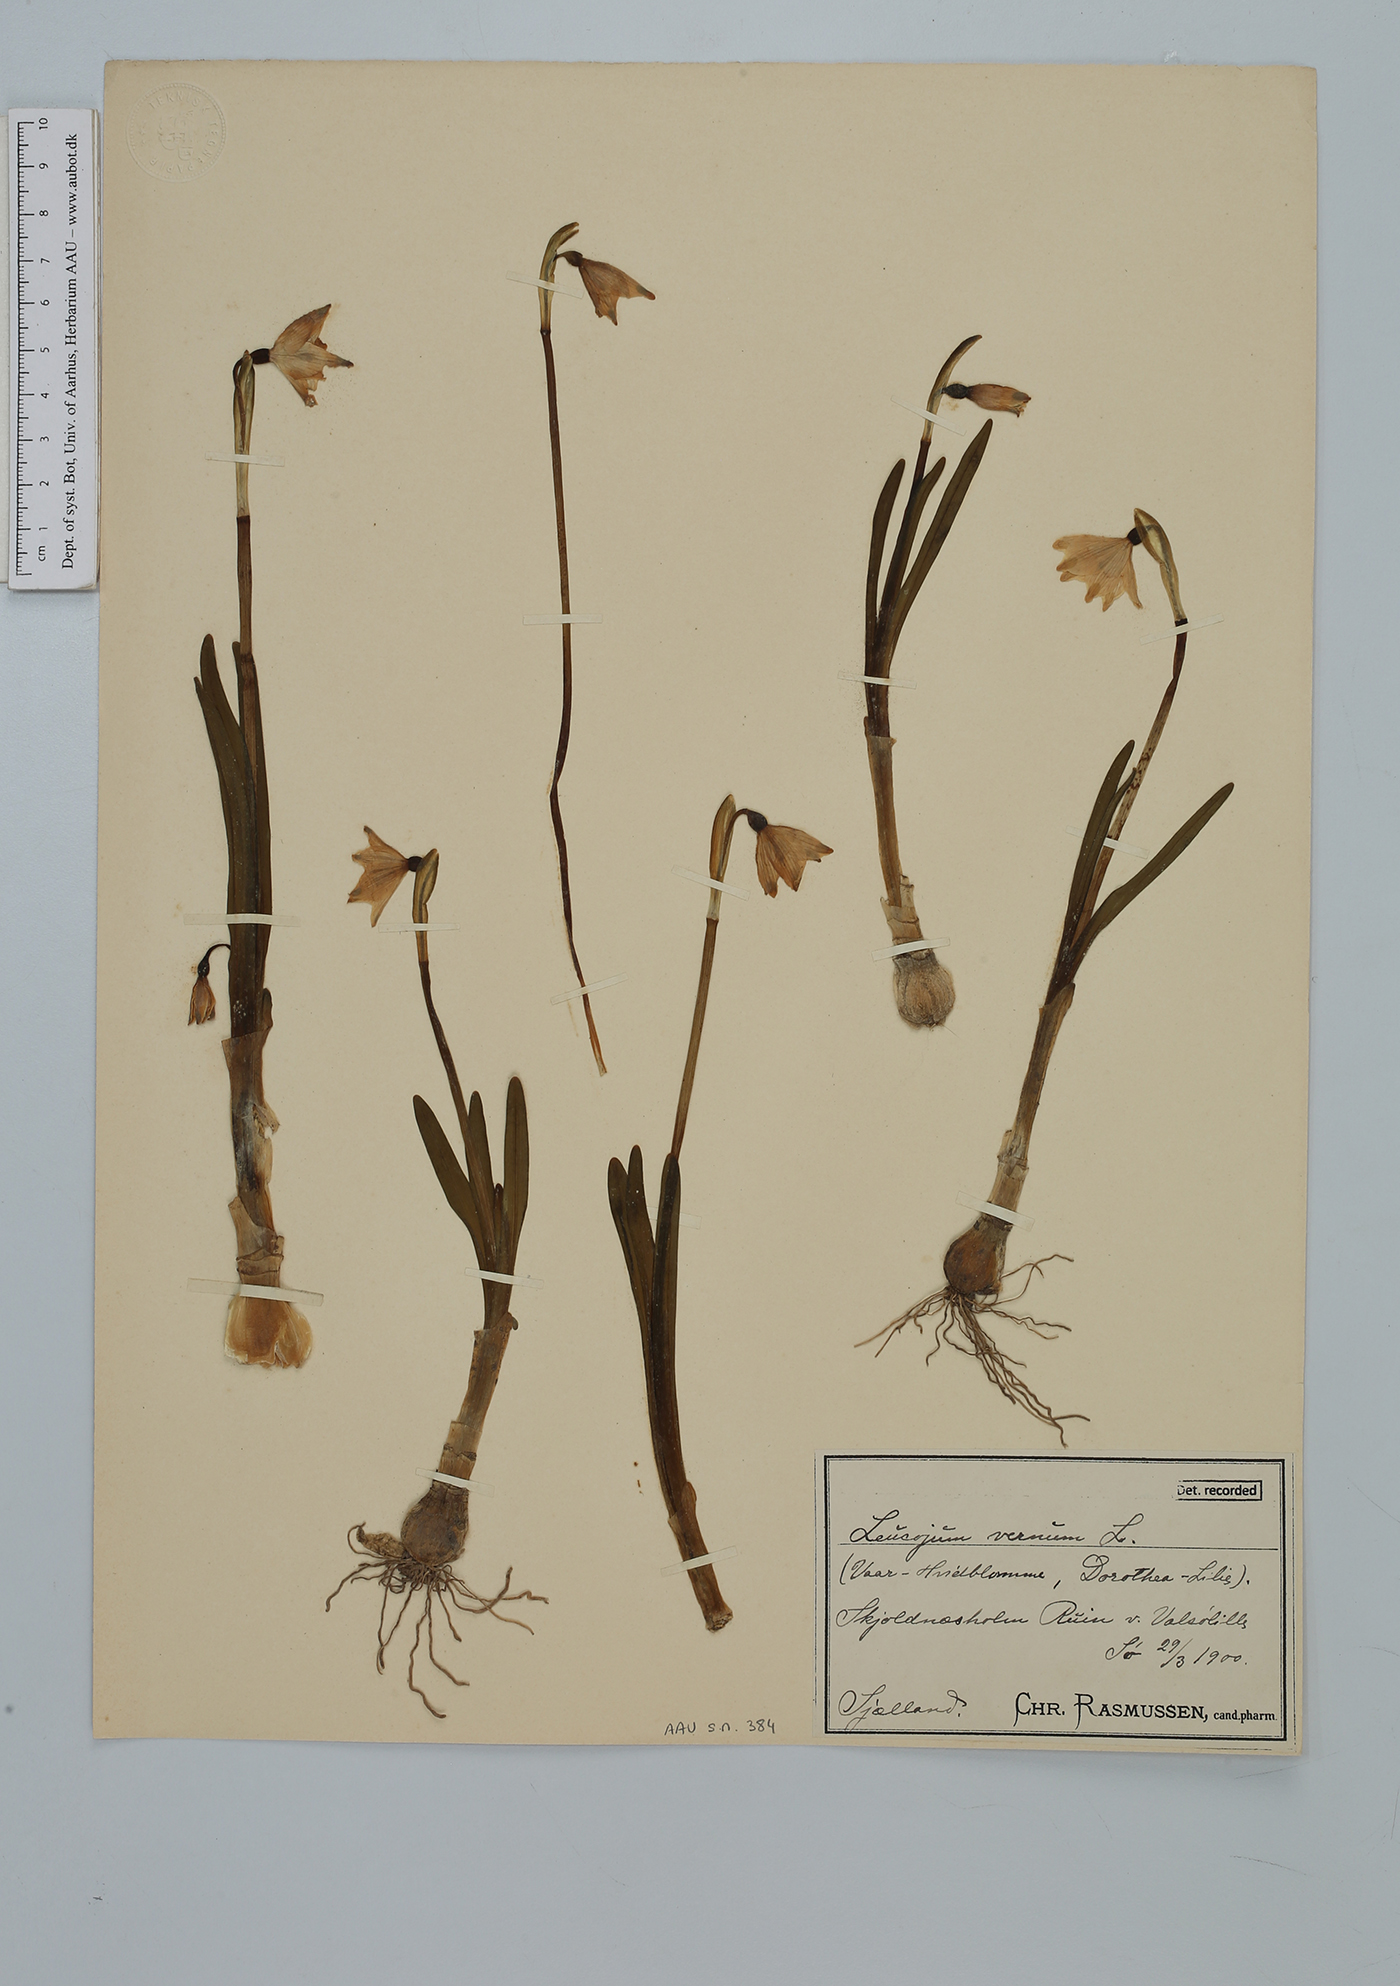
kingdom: Plantae
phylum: Tracheophyta
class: Liliopsida
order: Asparagales
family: Amaryllidaceae
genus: Leucojum
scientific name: Leucojum vernum
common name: Spring snowflake
